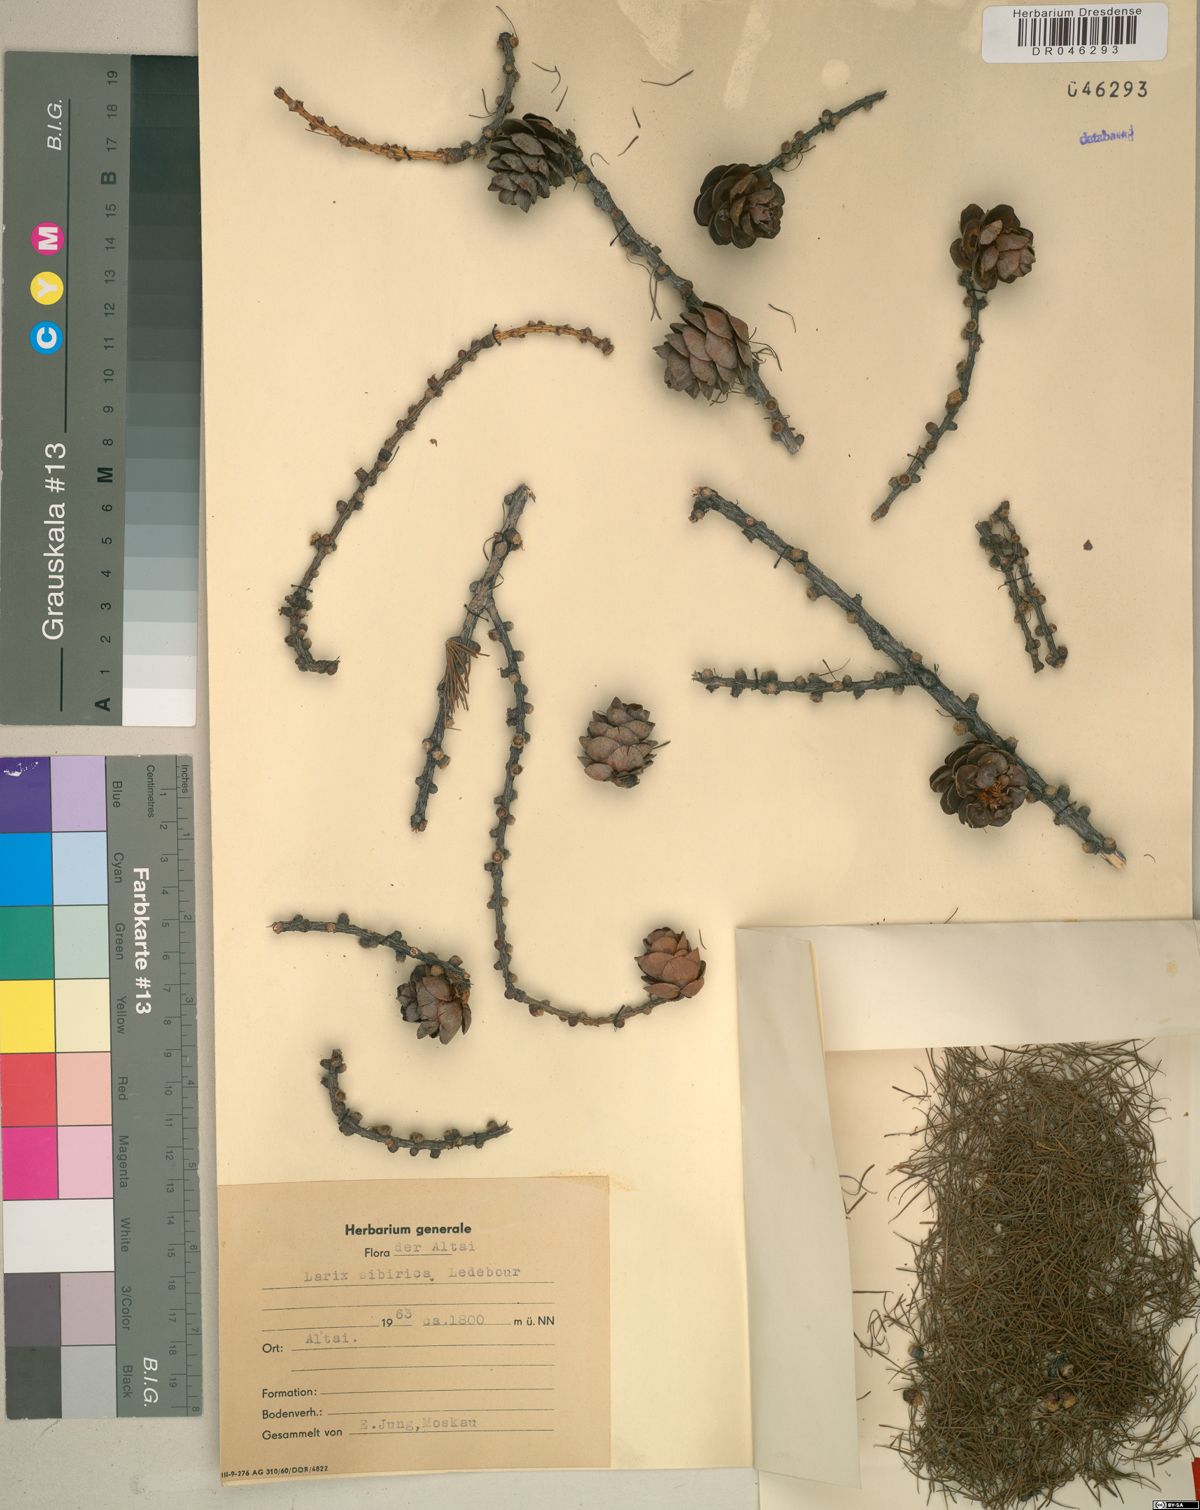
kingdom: Plantae
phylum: Tracheophyta
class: Pinopsida
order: Pinales
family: Pinaceae
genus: Larix
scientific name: Larix sibirica
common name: Siberian larch
